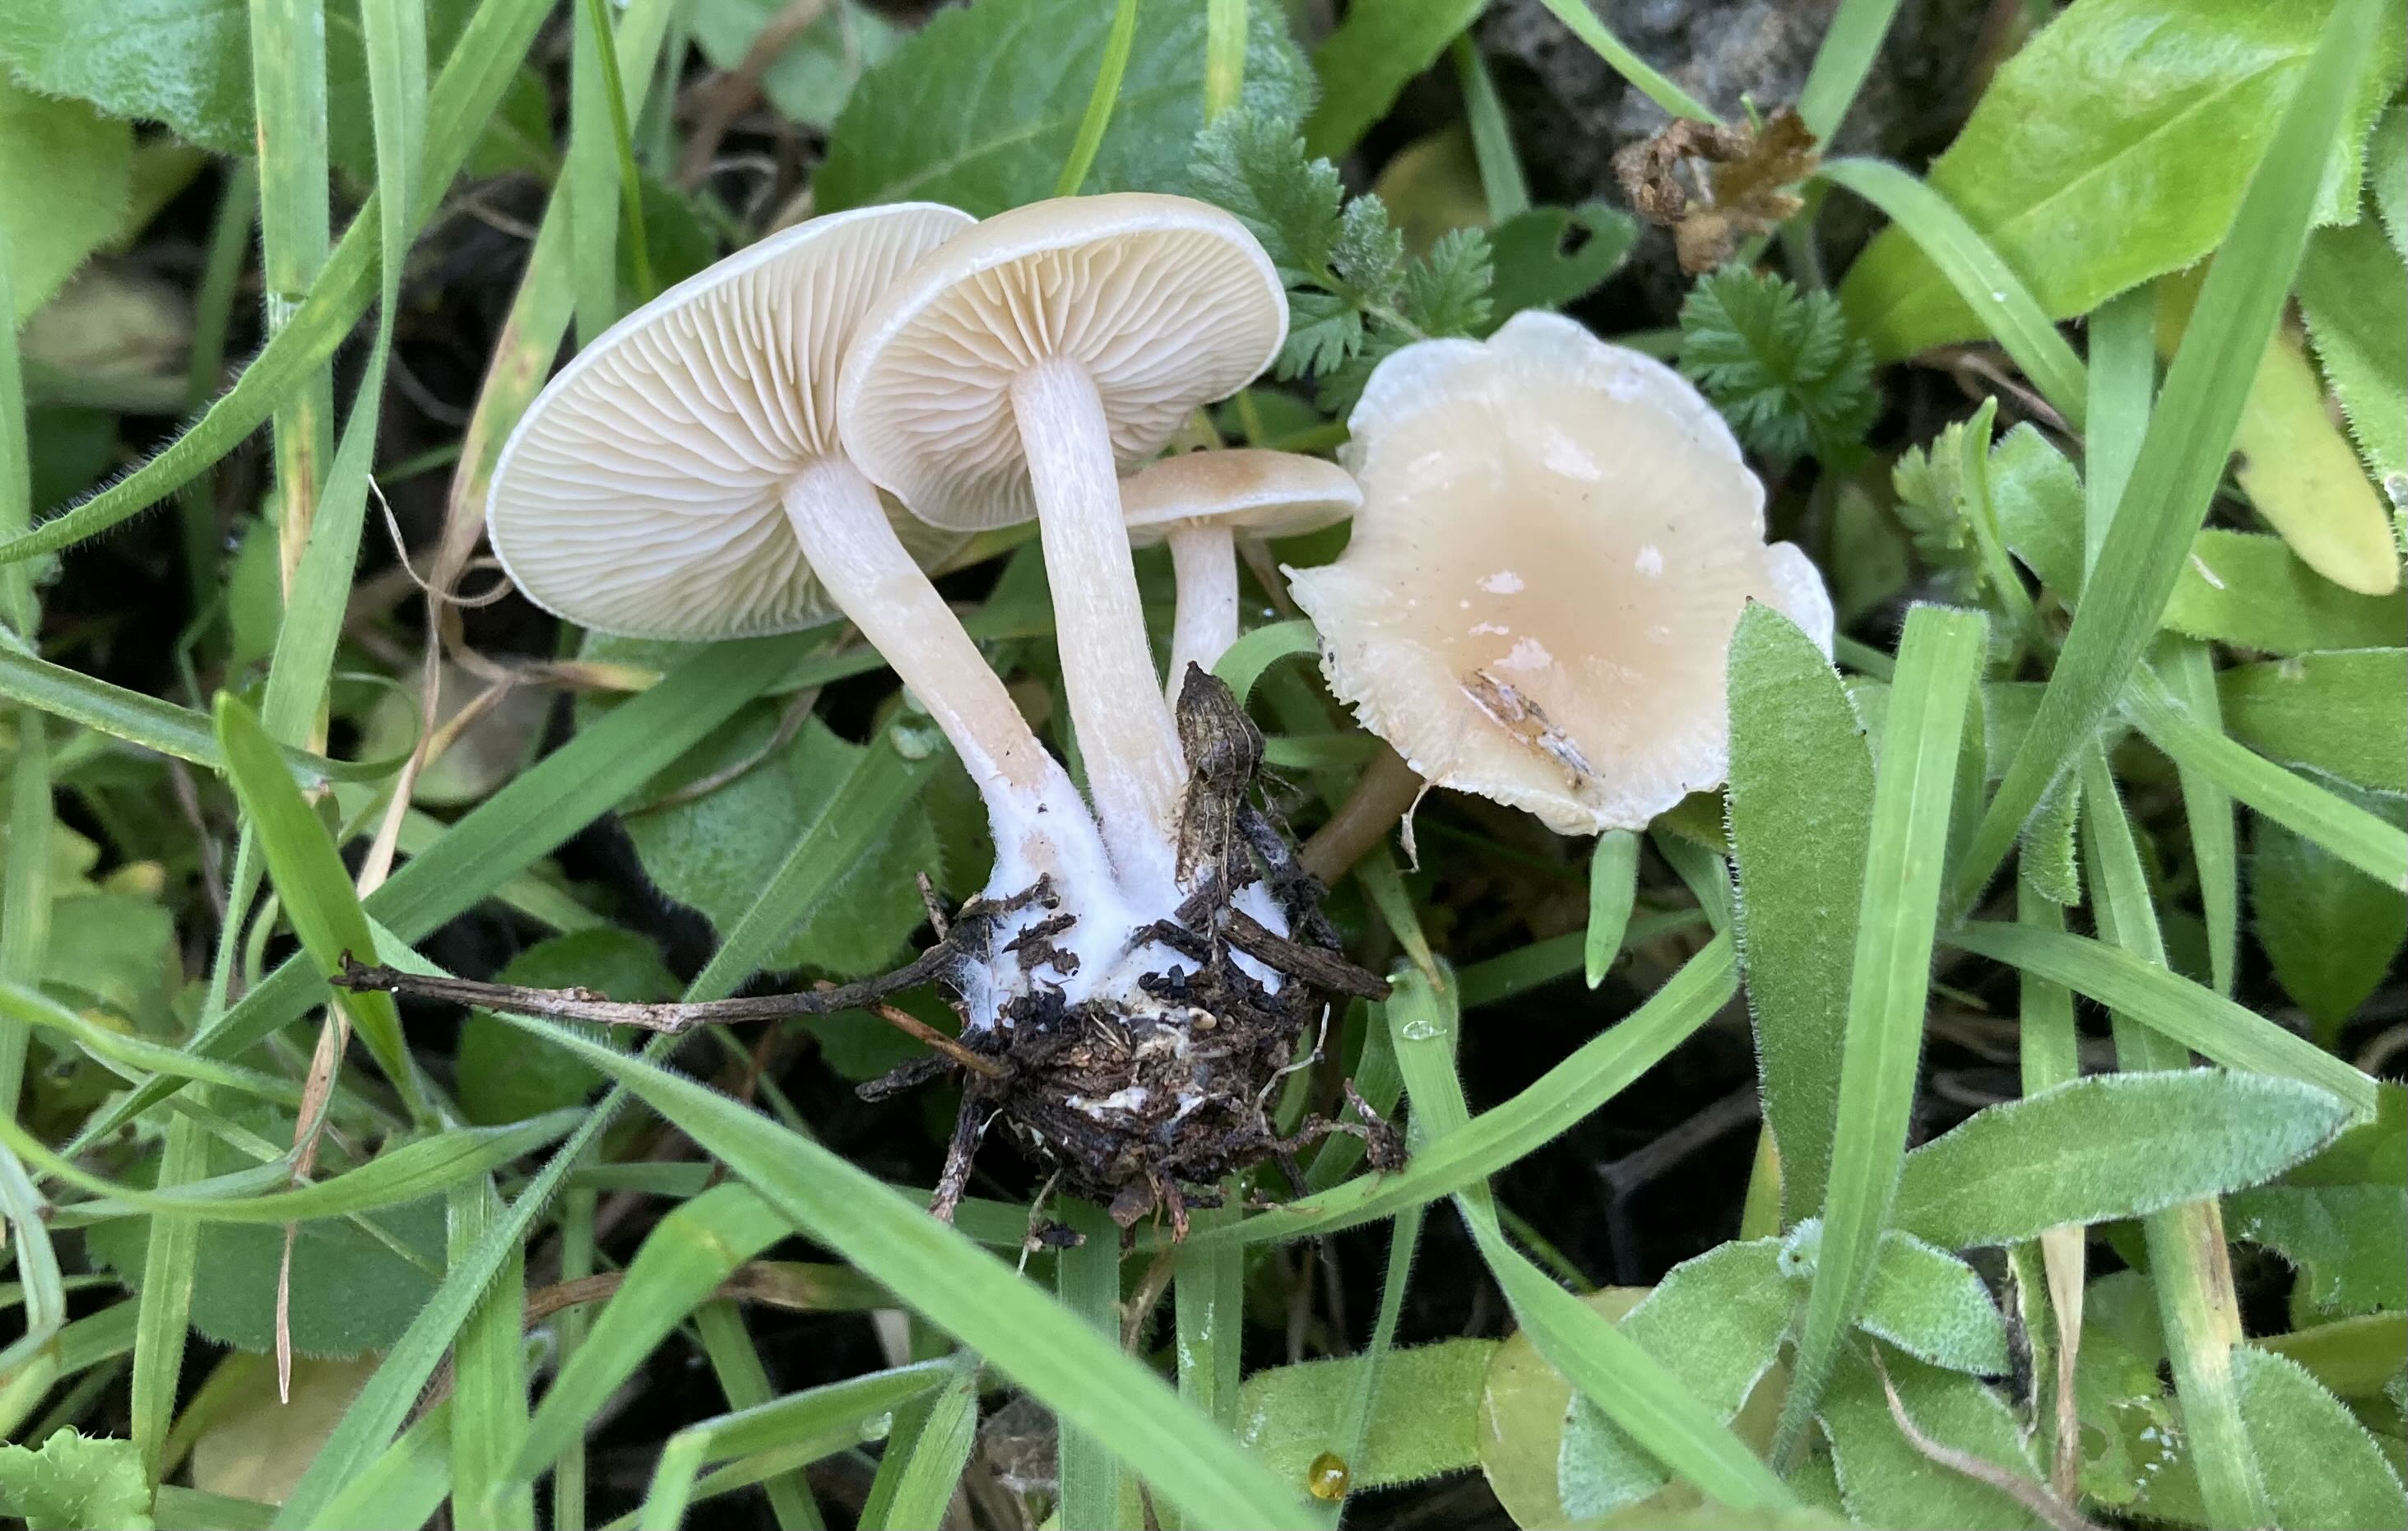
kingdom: Fungi
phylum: Basidiomycota
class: Agaricomycetes
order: Agaricales
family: Tricholomataceae
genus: Clitocybe
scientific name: Clitocybe rivulosa
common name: eng-tragthat
